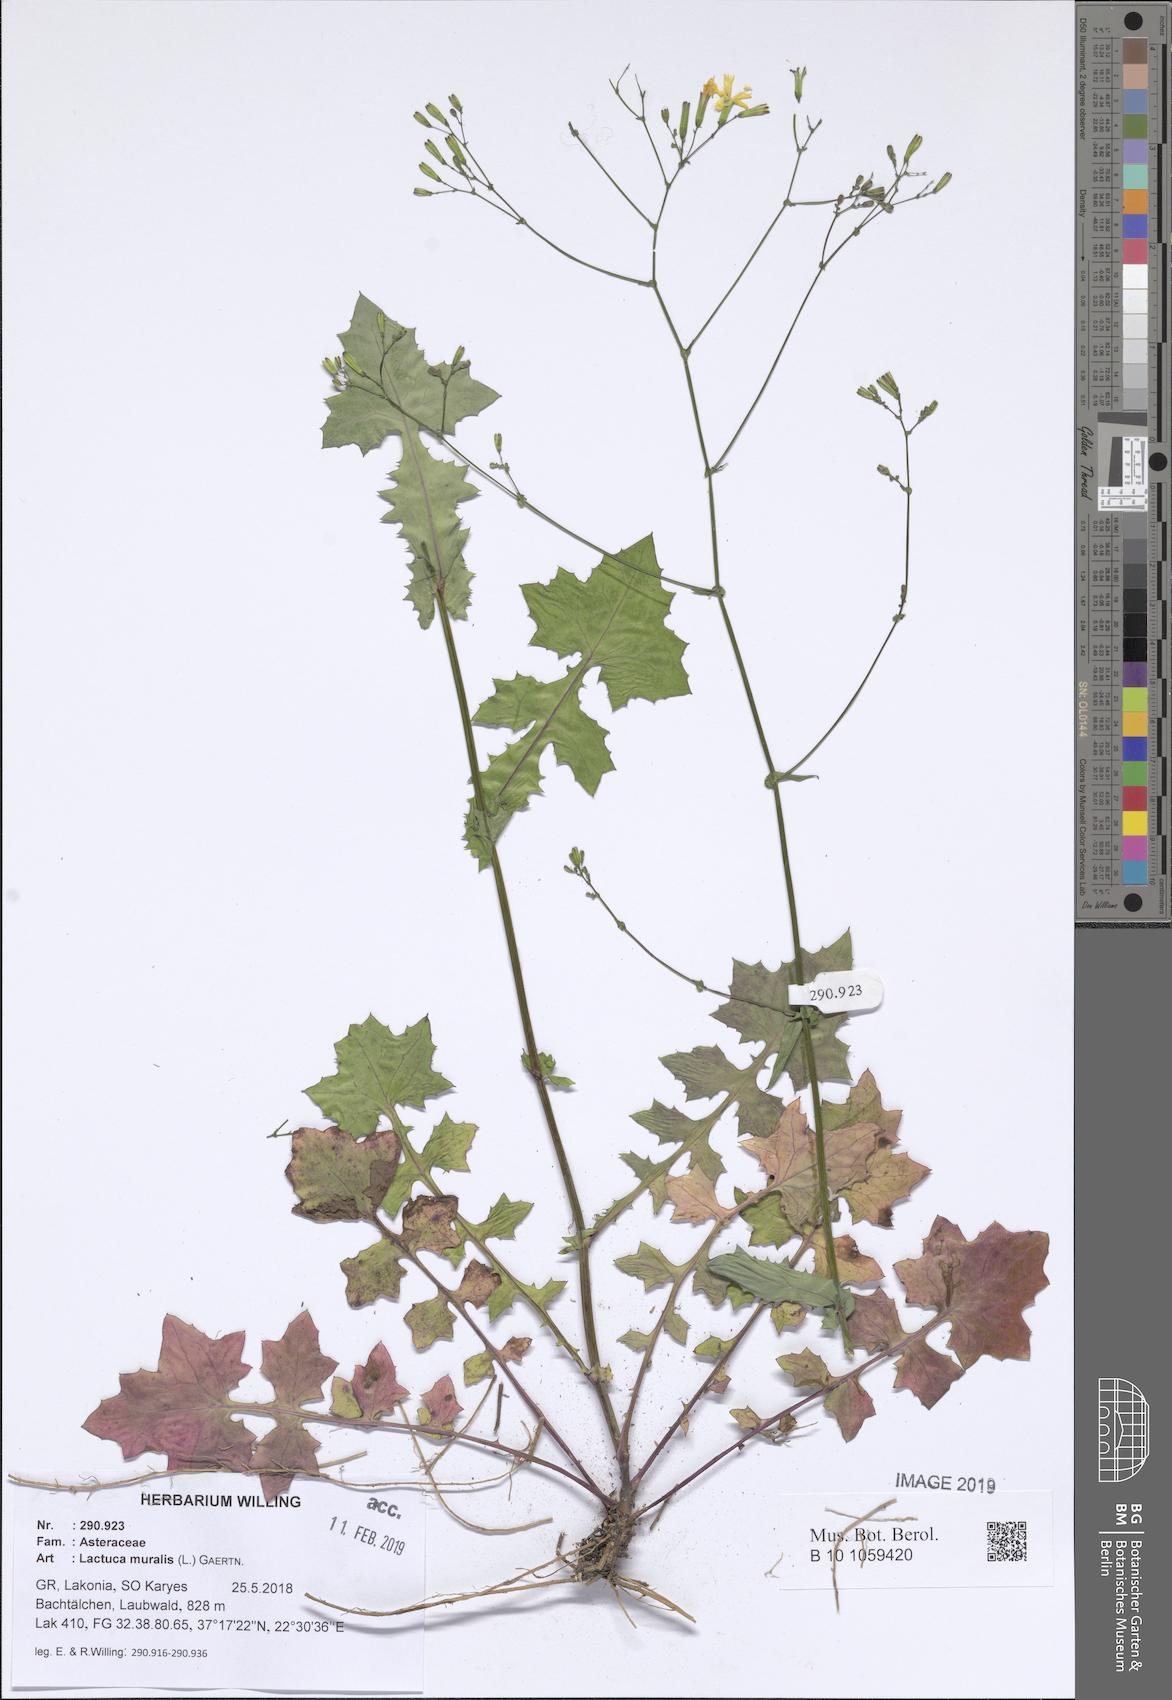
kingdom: Plantae
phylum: Tracheophyta
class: Magnoliopsida
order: Asterales
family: Asteraceae
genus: Mycelis
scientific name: Mycelis muralis
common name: Wall lettuce
